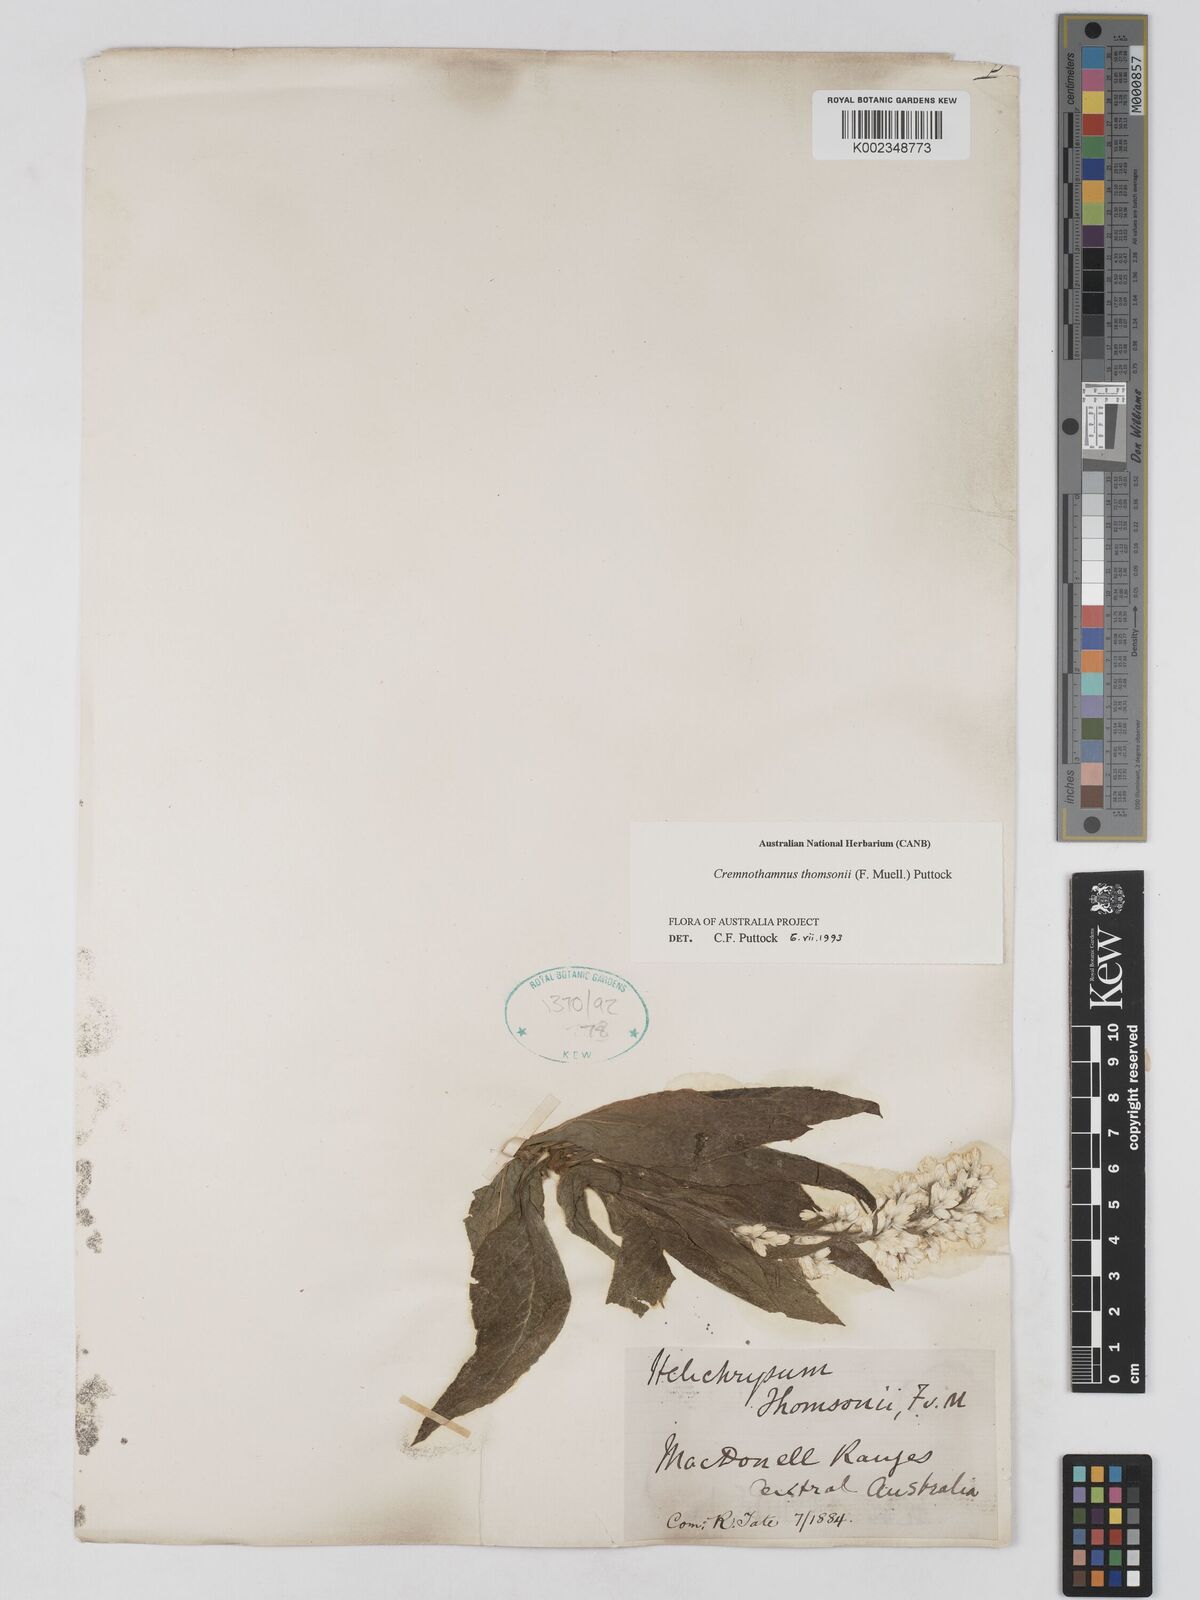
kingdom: Plantae
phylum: Tracheophyta
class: Magnoliopsida
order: Asterales
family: Asteraceae
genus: Cremnothamnus
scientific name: Cremnothamnus thomsonii
